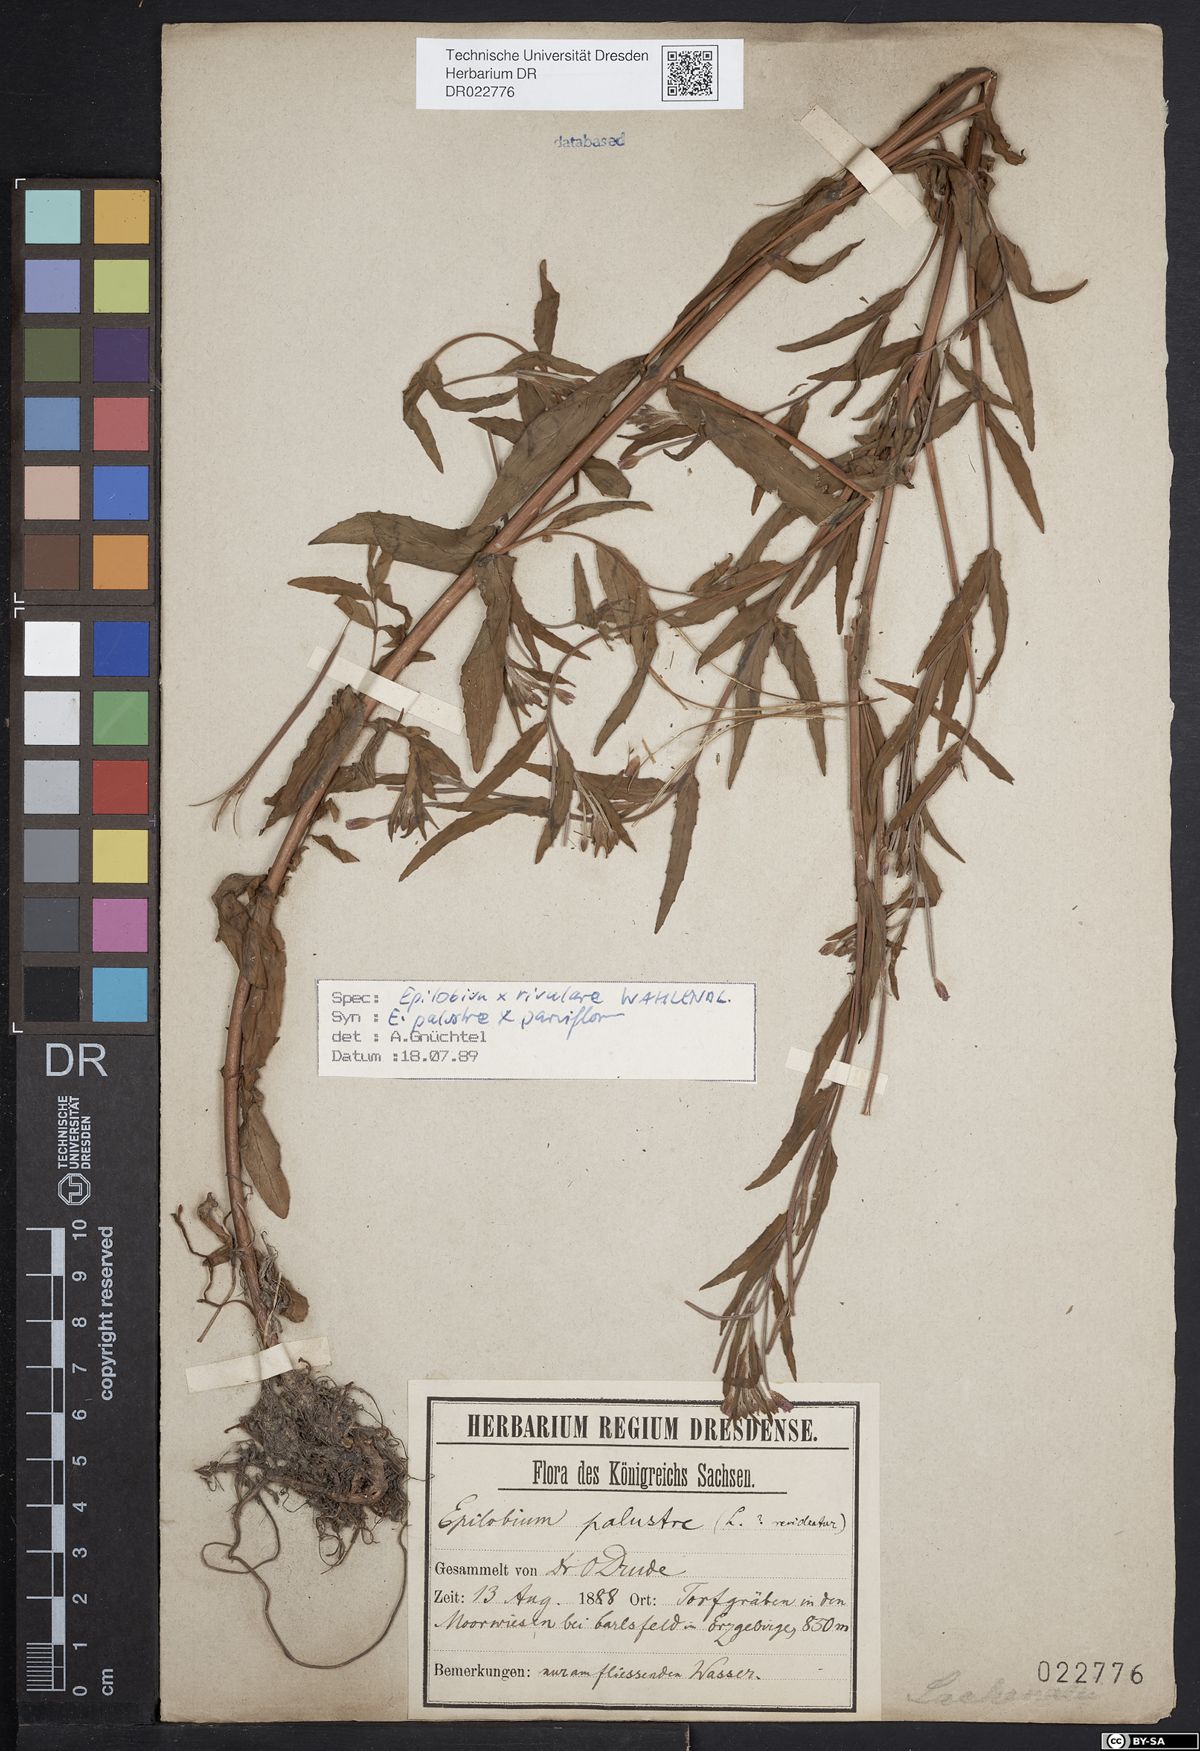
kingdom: Plantae
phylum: Tracheophyta
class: Magnoliopsida
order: Myrtales
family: Onagraceae
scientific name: Onagraceae
